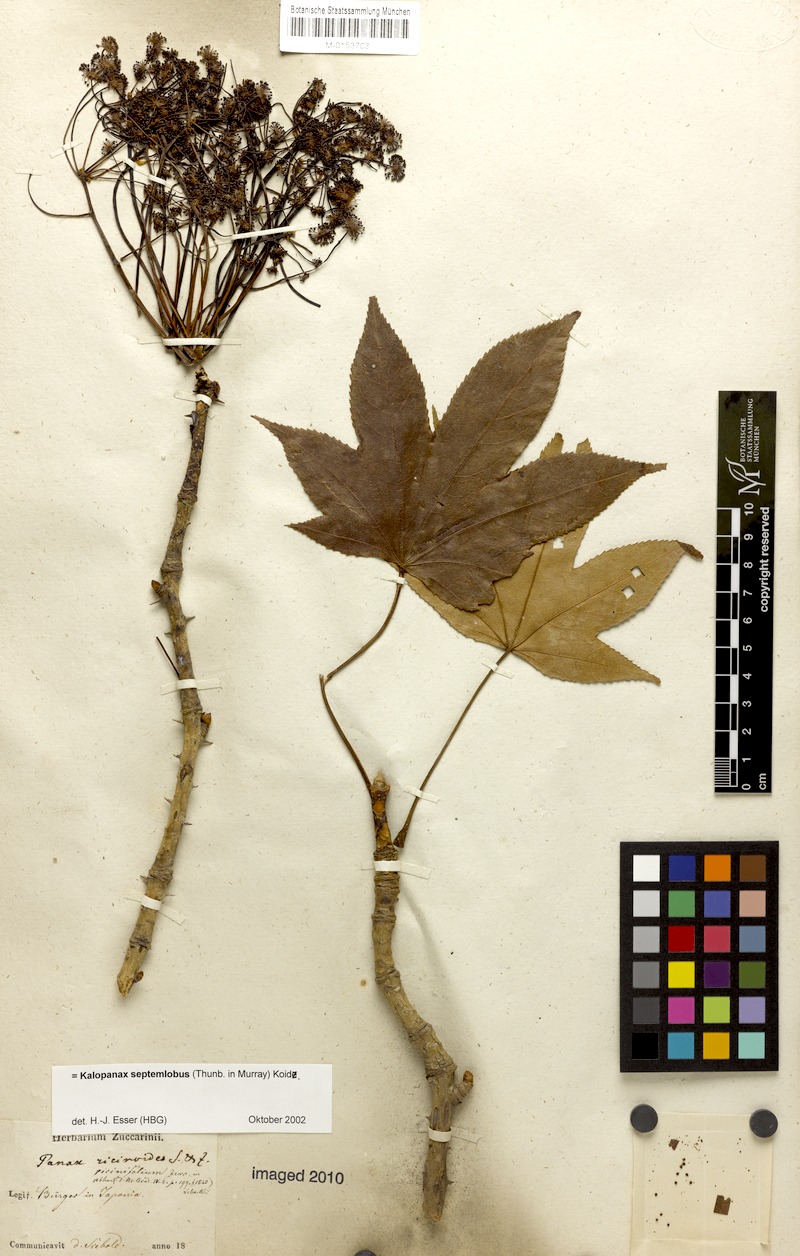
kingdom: Plantae
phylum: Tracheophyta
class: Magnoliopsida
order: Apiales
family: Araliaceae
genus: Kalopanax
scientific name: Kalopanax septemlobus
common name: Castor aralia
